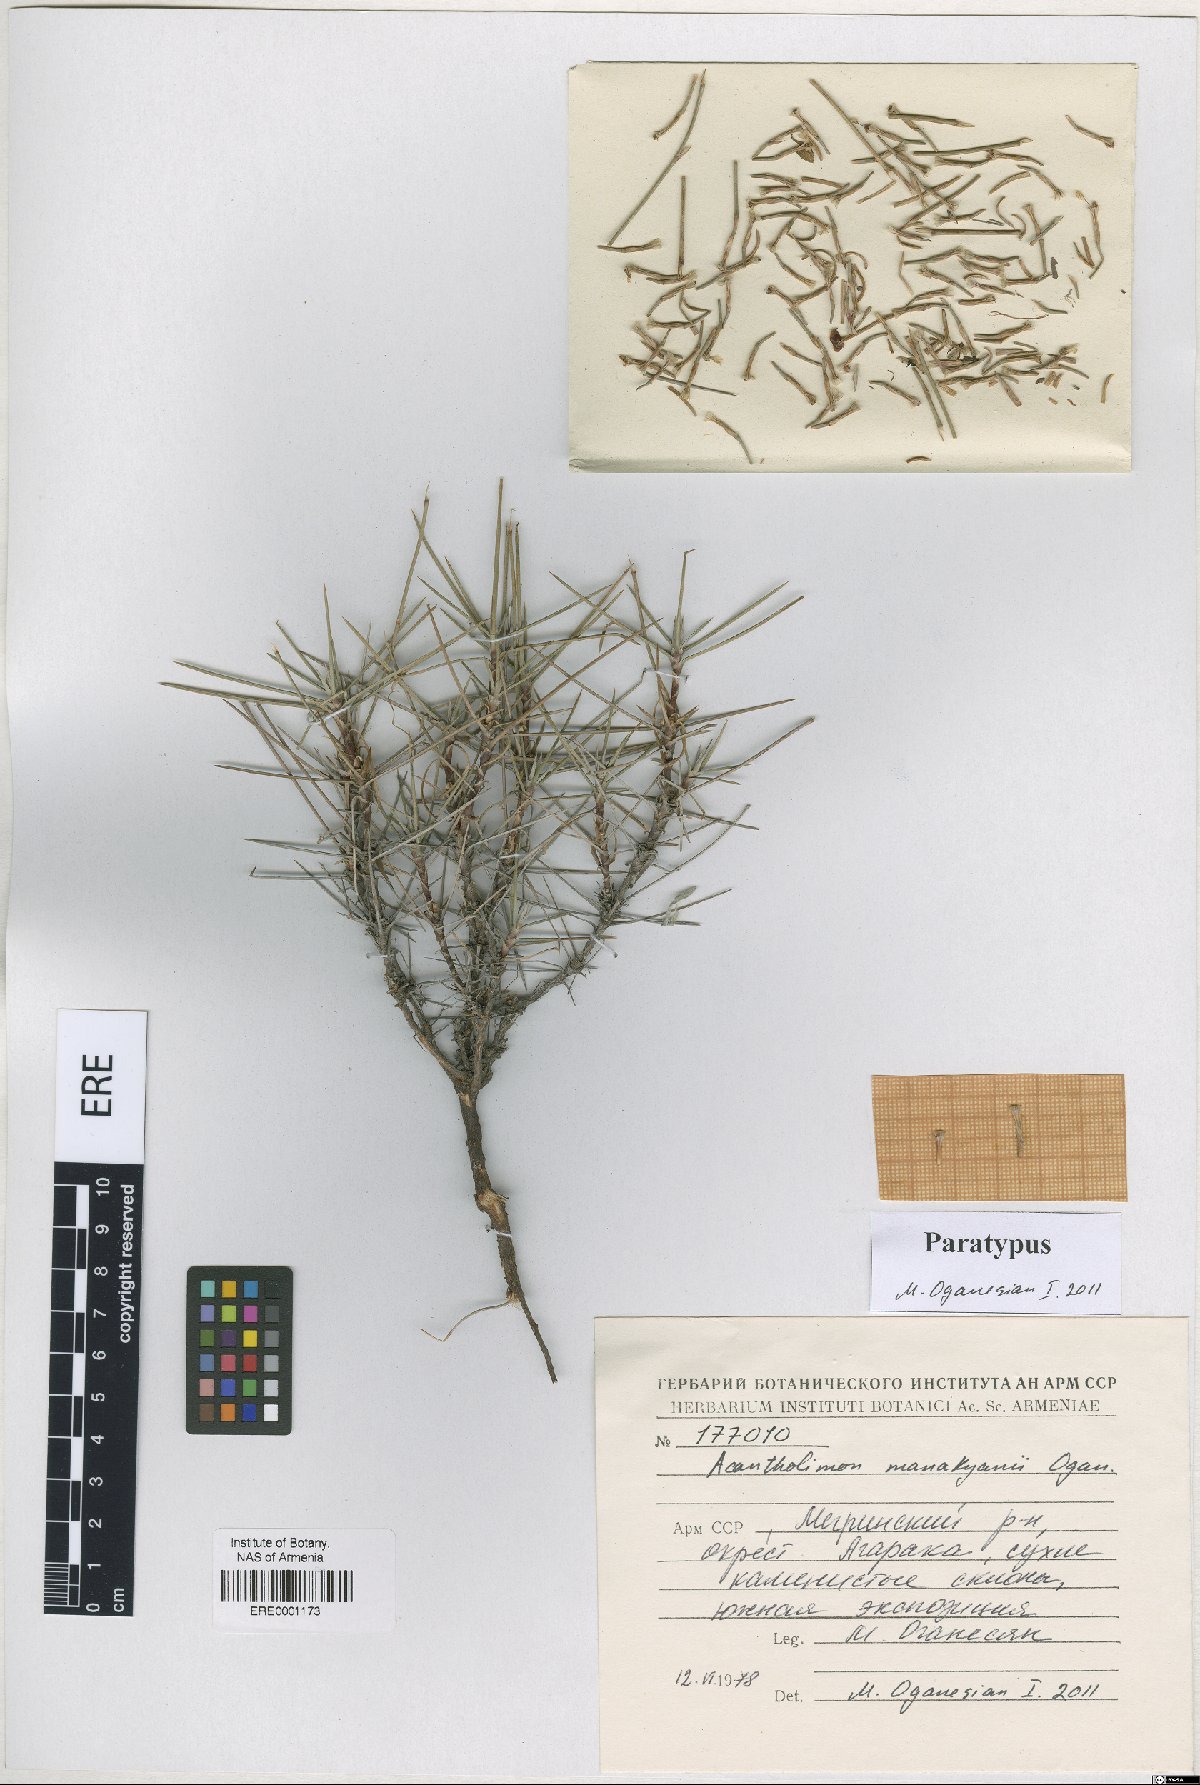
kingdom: Plantae
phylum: Tracheophyta
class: Magnoliopsida
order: Caryophyllales
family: Plumbaginaceae
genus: Acantholimon
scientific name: Acantholimon manakyanii
